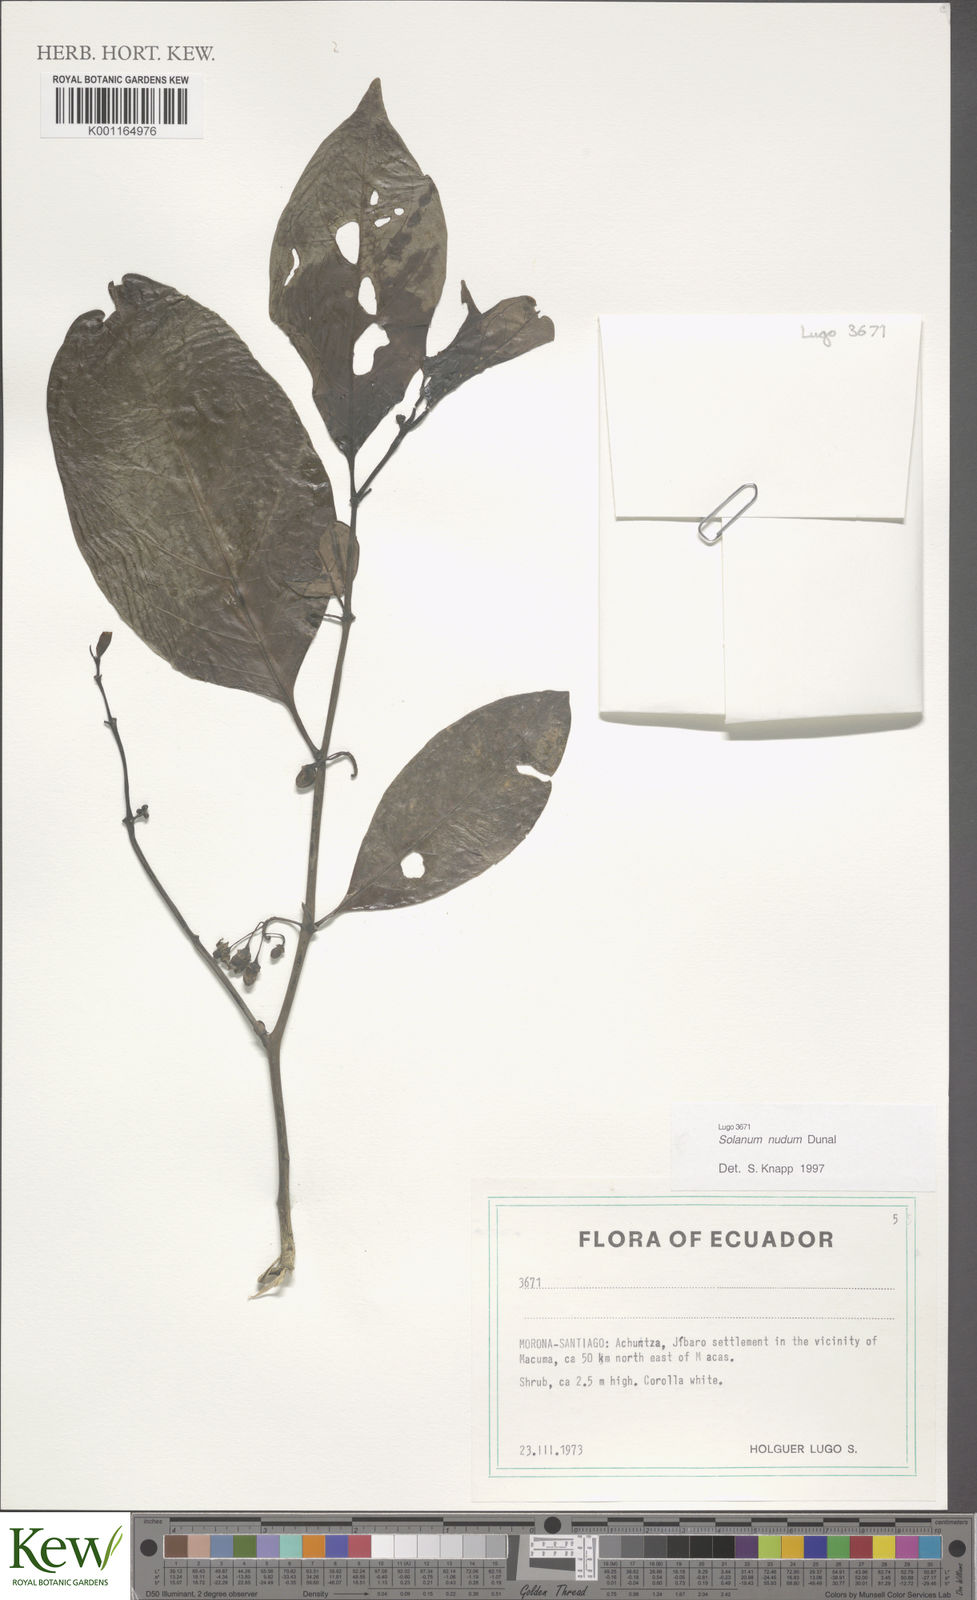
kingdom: Plantae
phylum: Tracheophyta
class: Magnoliopsida
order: Solanales
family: Solanaceae
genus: Solanum
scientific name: Solanum nudum
